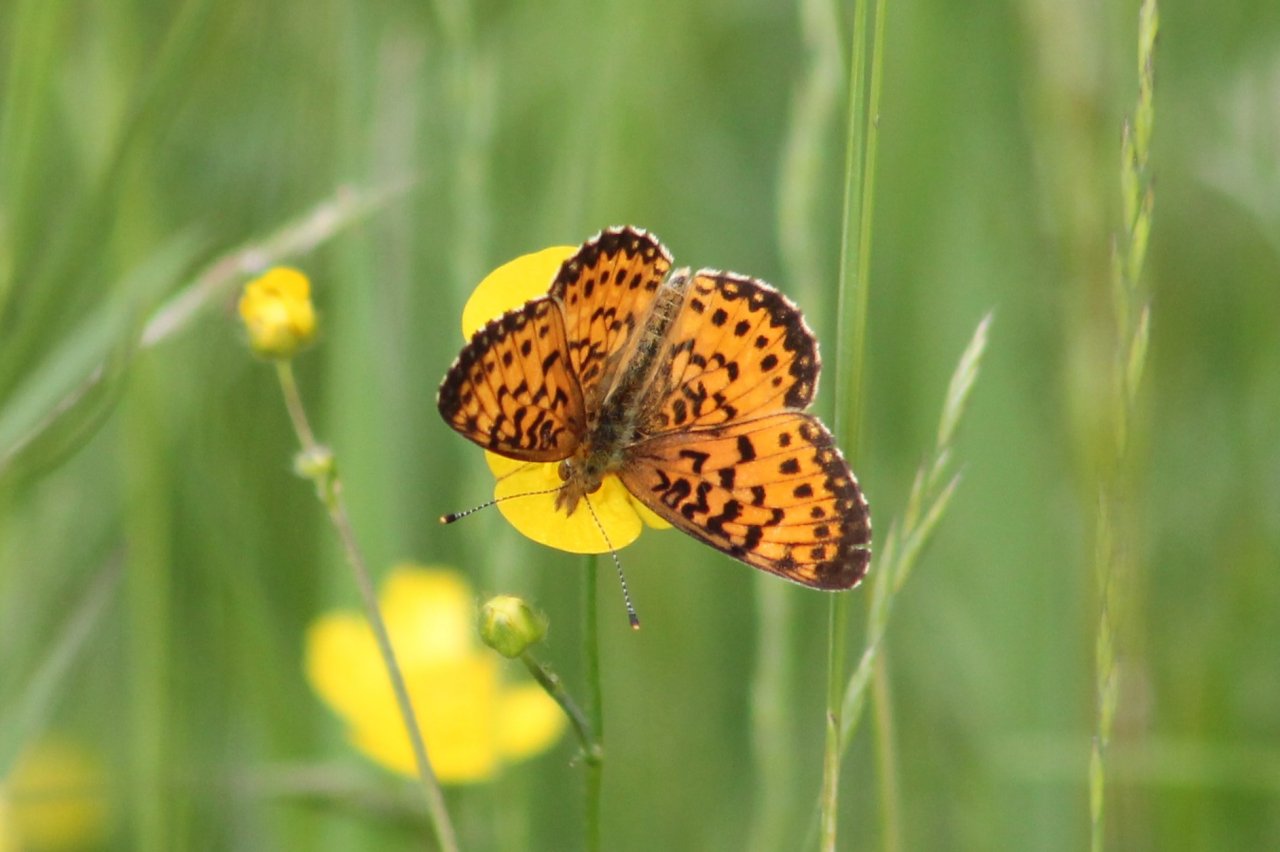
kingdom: Animalia
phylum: Arthropoda
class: Insecta
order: Lepidoptera
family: Nymphalidae
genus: Boloria
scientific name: Boloria selene
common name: Silver-bordered Fritillary
